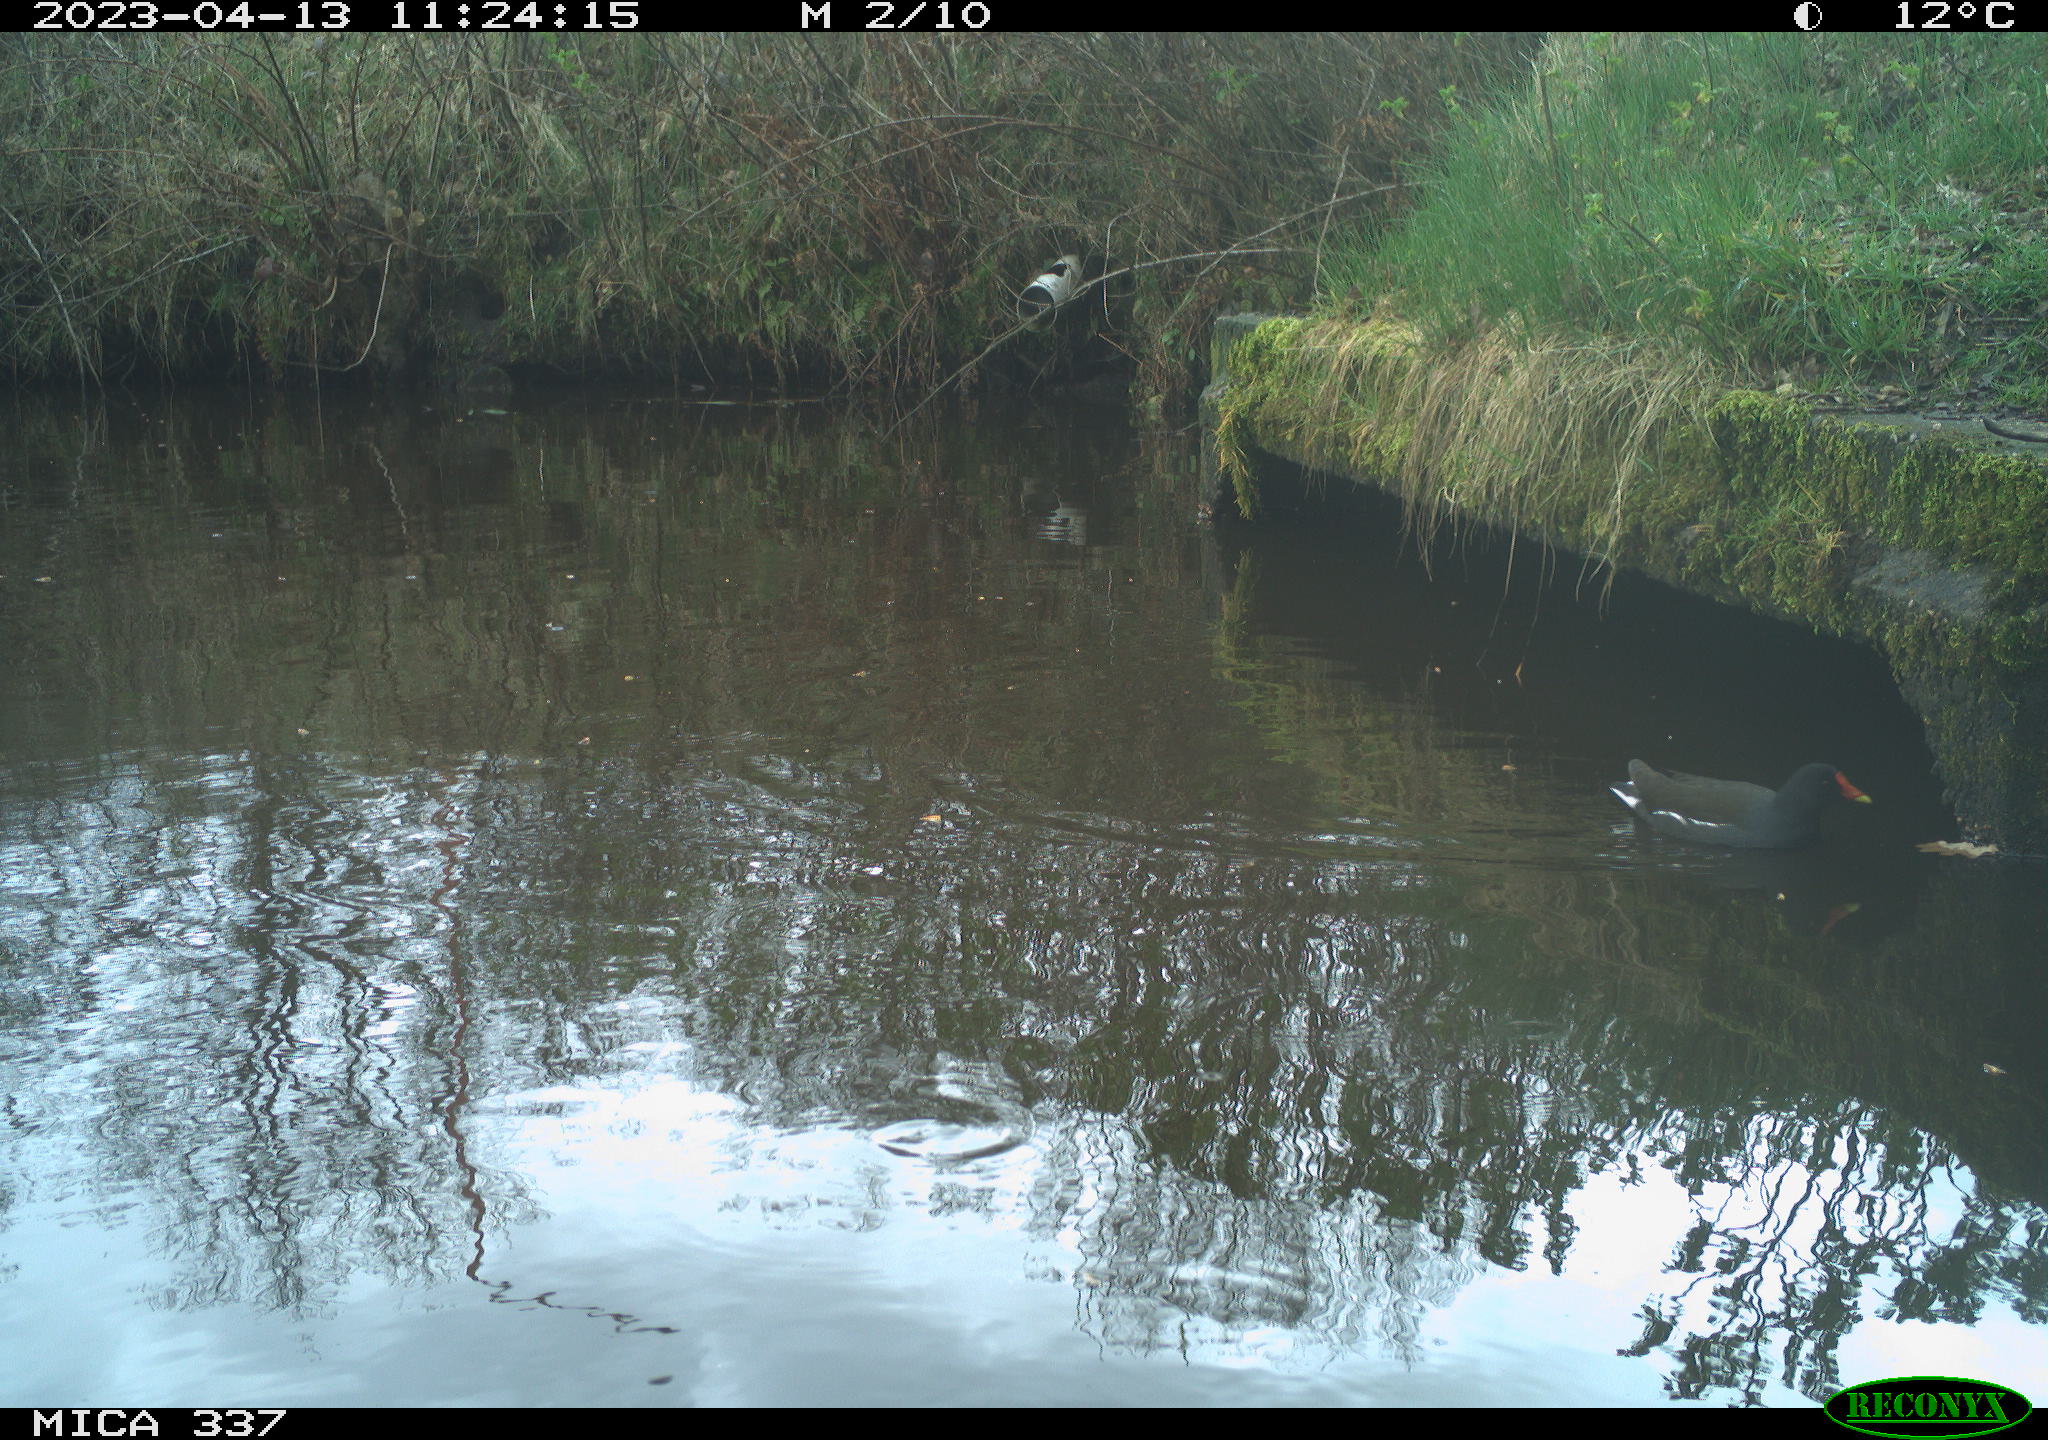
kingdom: Animalia
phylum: Chordata
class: Aves
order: Gruiformes
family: Rallidae
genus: Gallinula
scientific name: Gallinula chloropus
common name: Common moorhen
